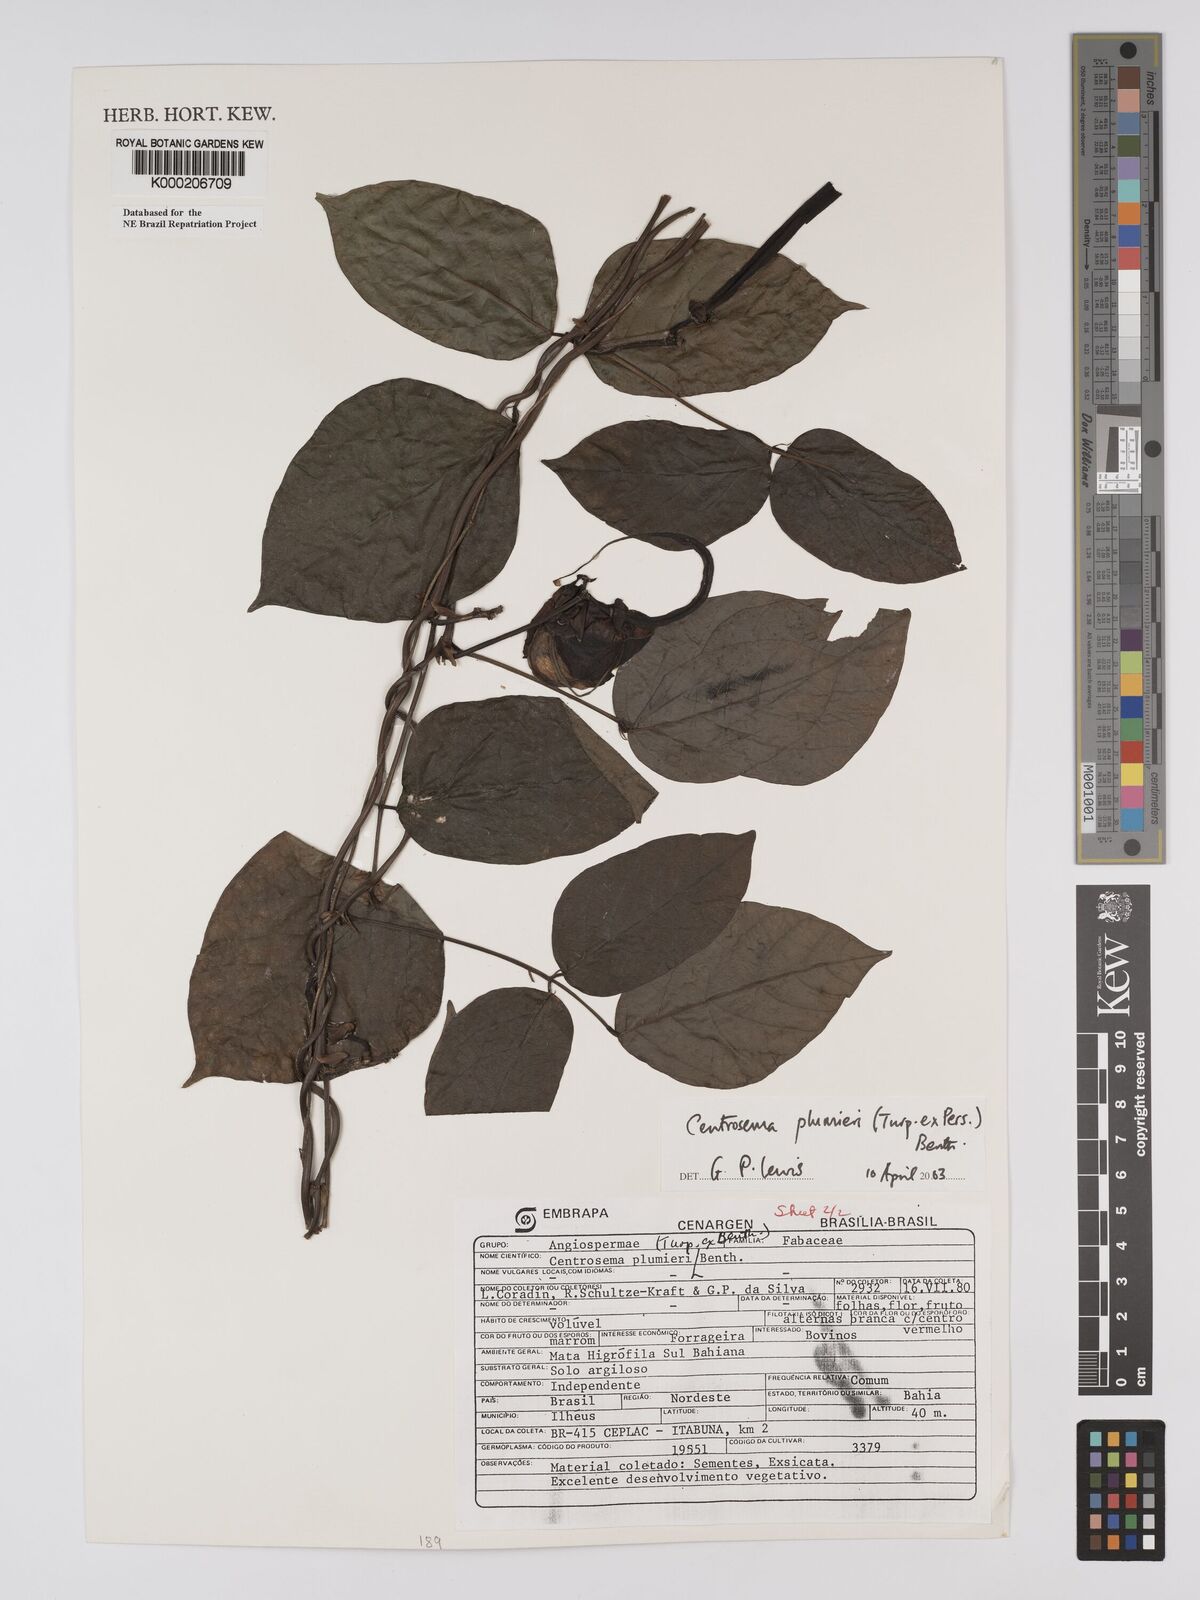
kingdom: Plantae
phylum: Tracheophyta
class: Magnoliopsida
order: Fabales
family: Fabaceae
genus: Centrosema
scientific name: Centrosema plumieri
